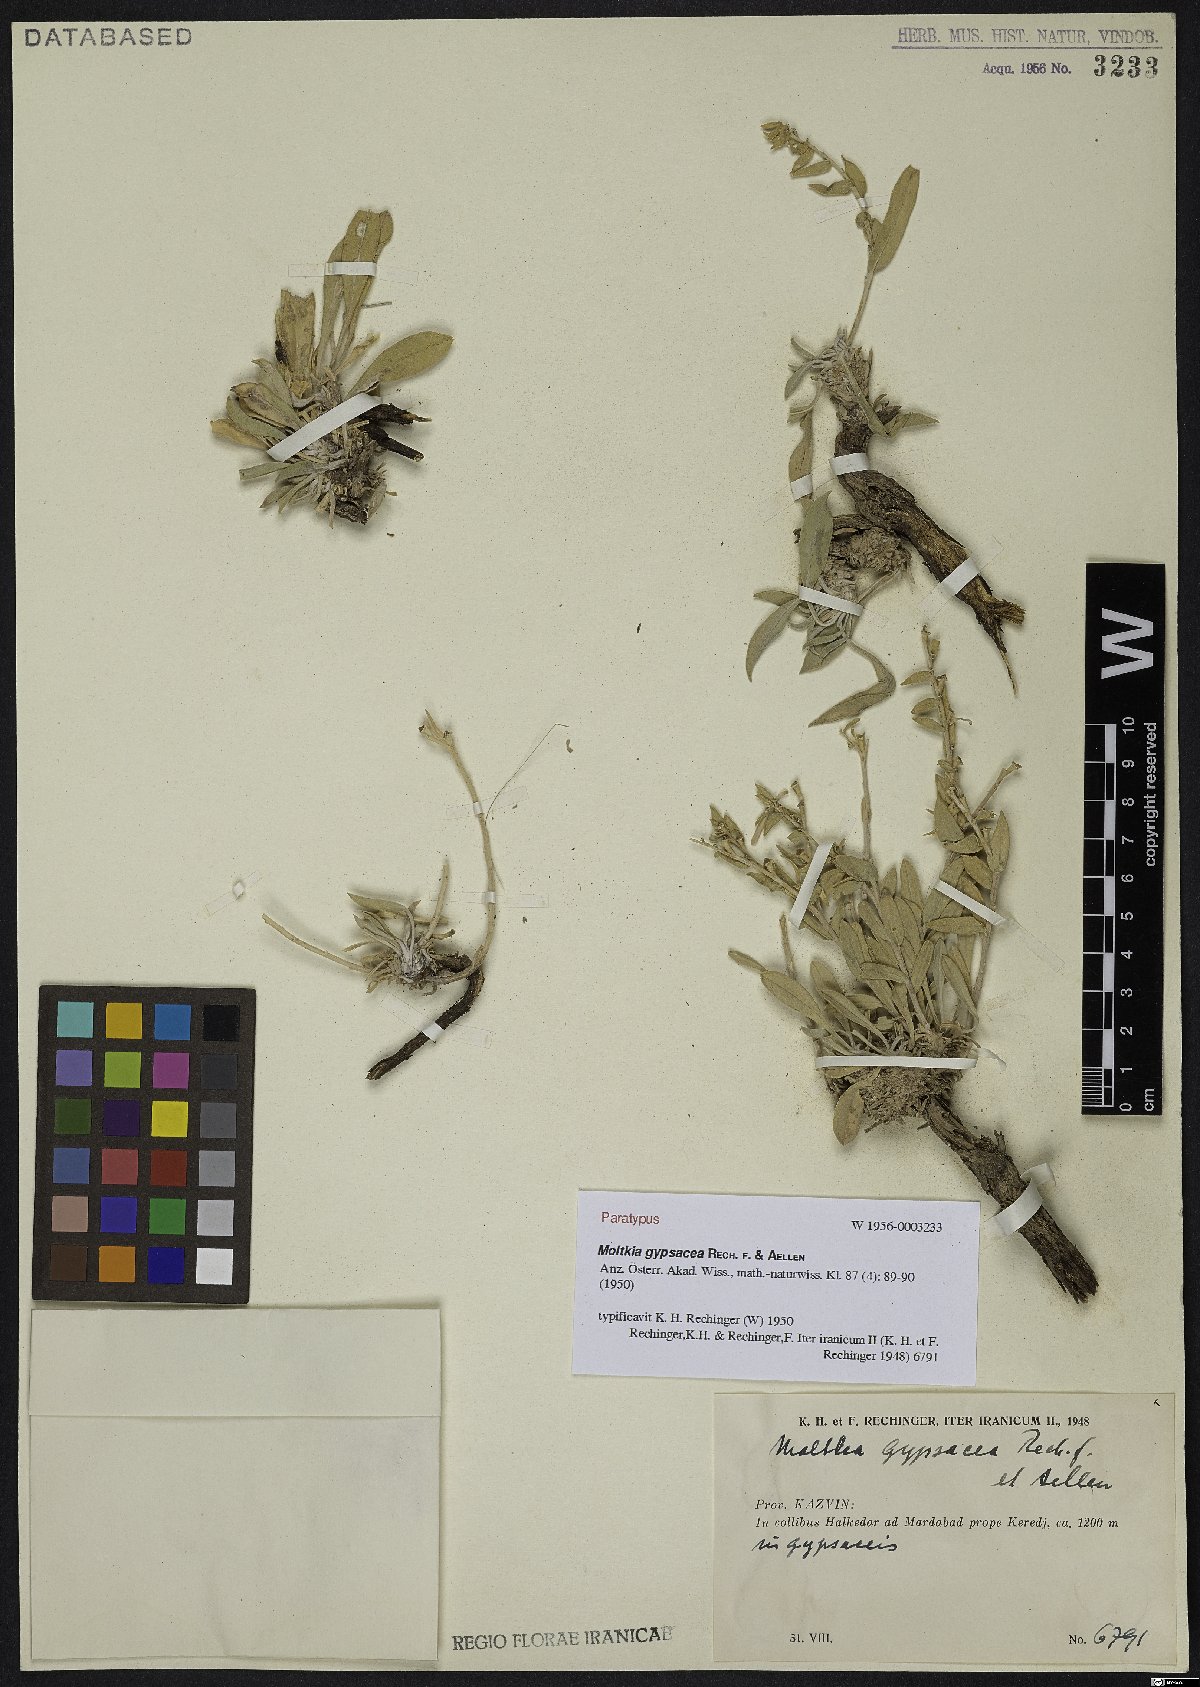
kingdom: Plantae
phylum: Tracheophyta
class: Magnoliopsida
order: Boraginales
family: Boraginaceae
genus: Moltkia
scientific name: Moltkia gypsacea
